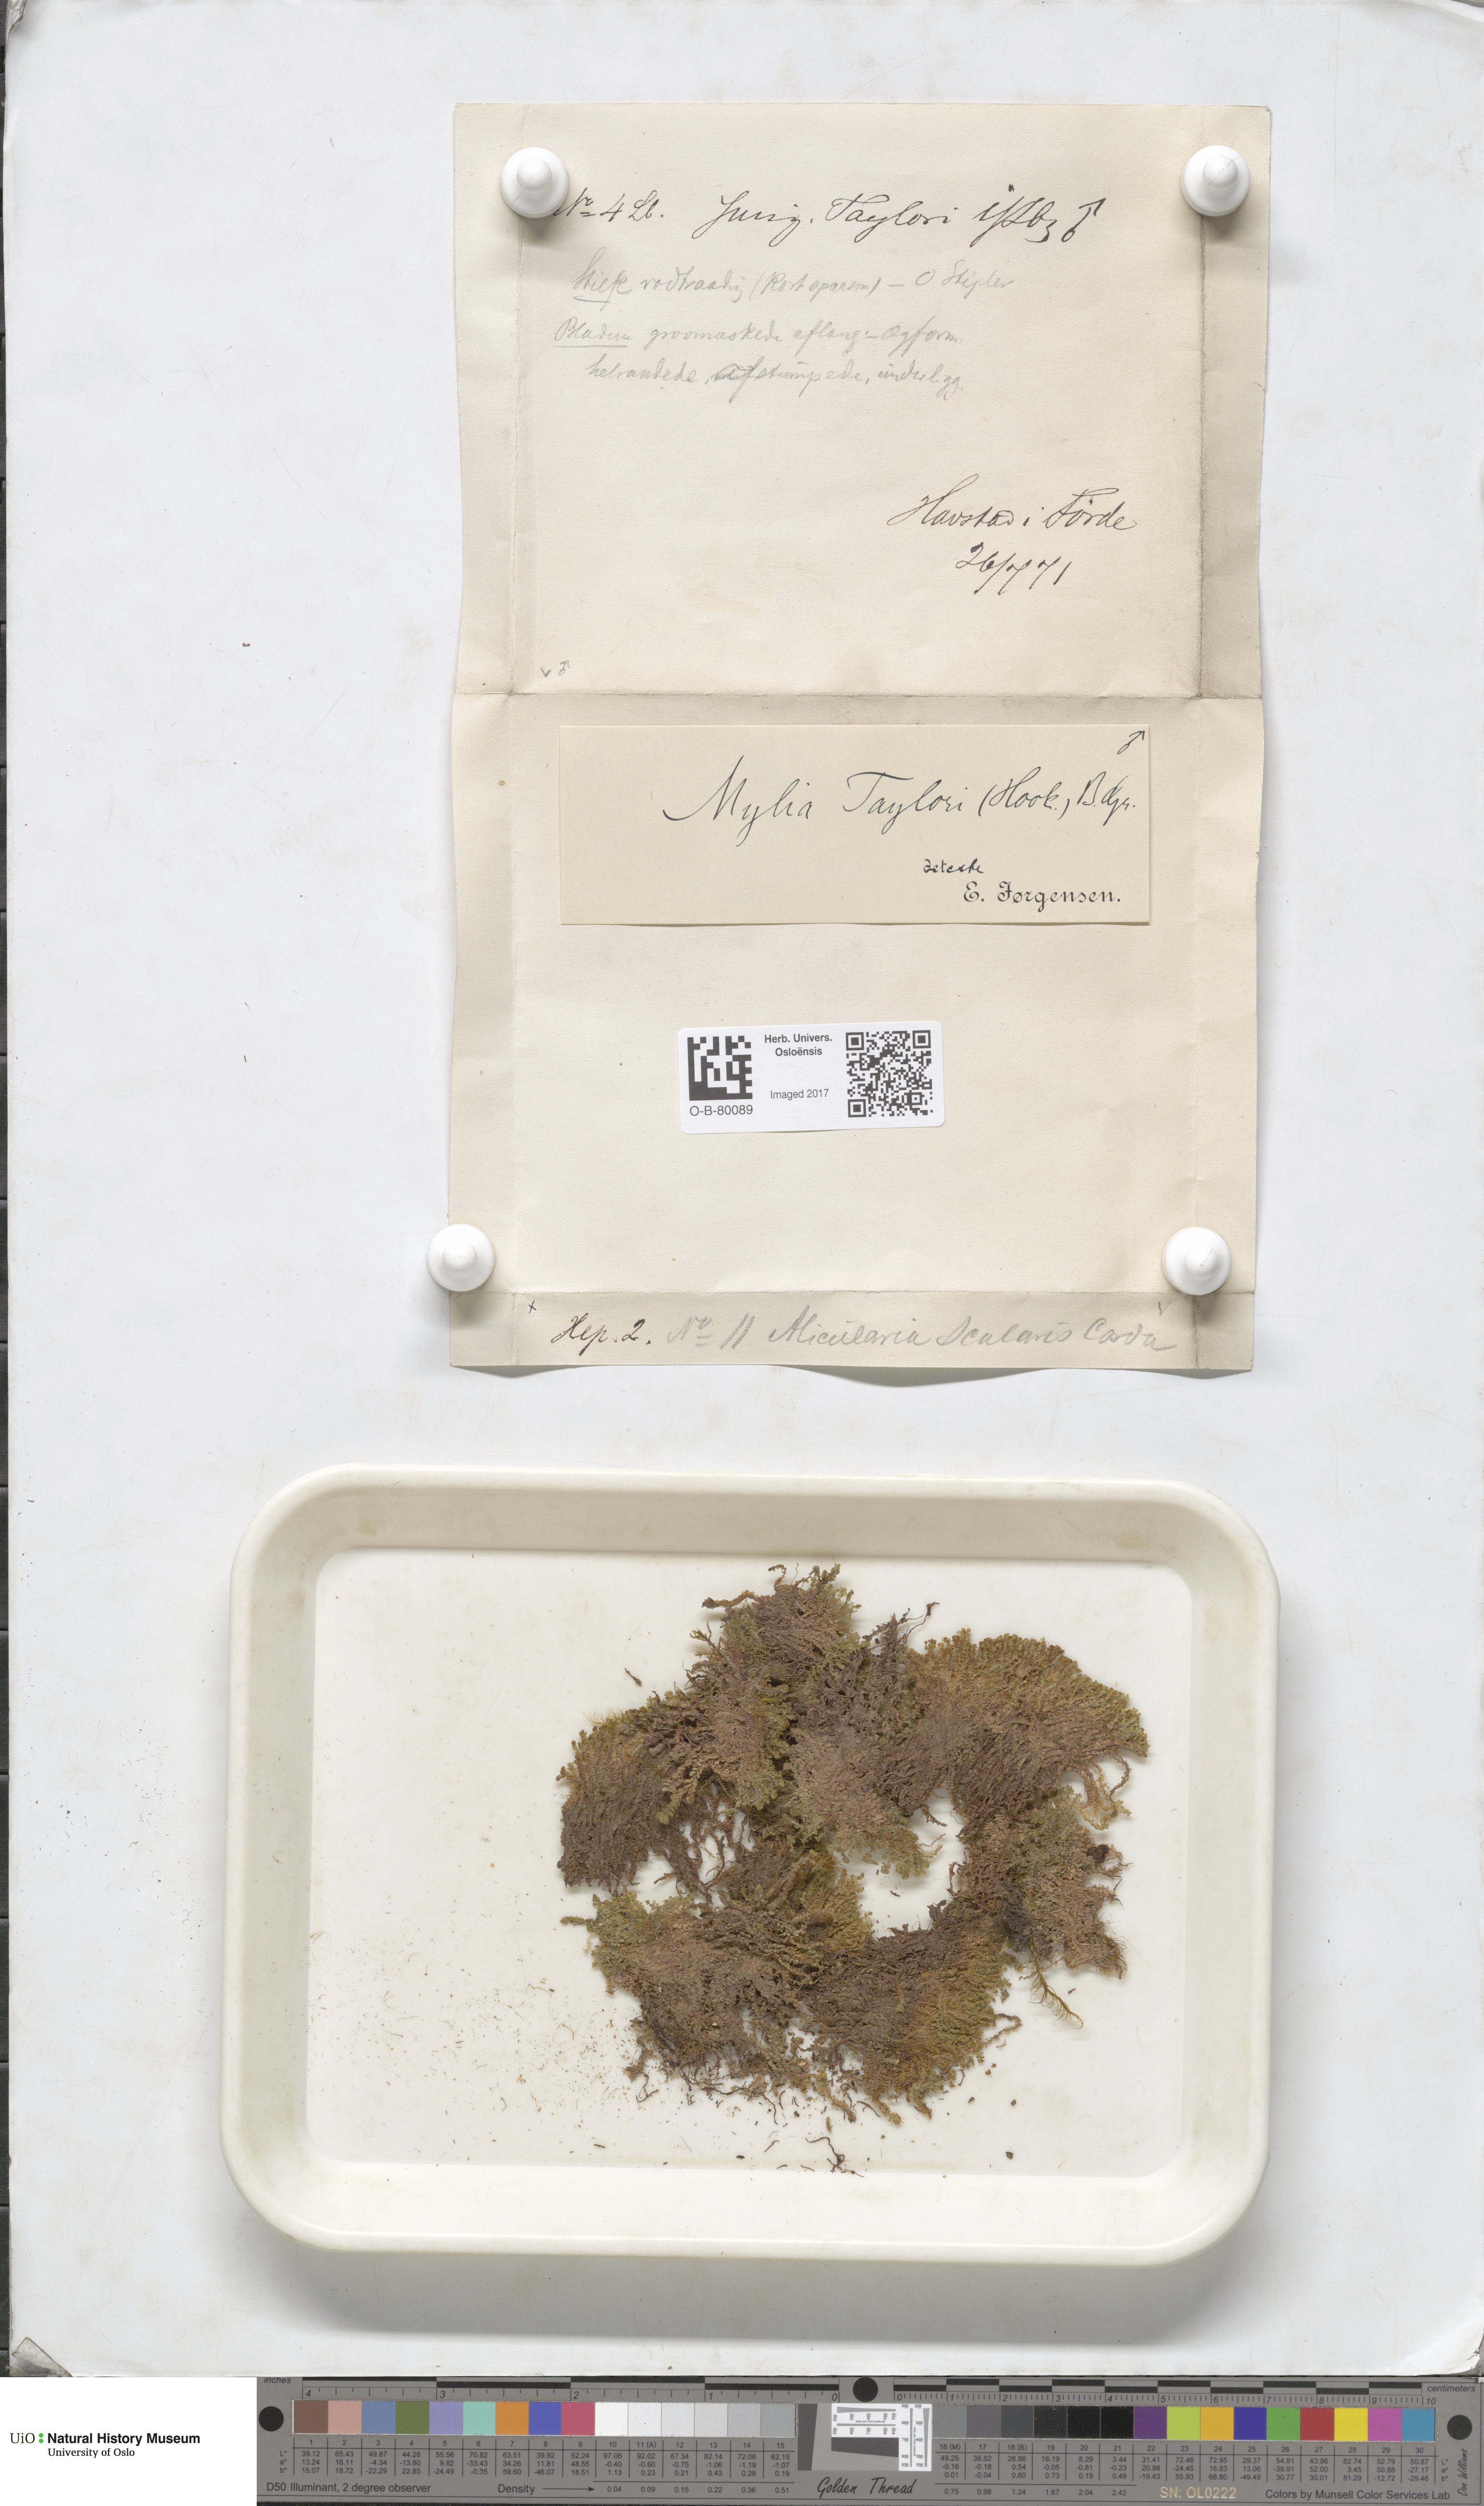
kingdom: Plantae
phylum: Marchantiophyta
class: Jungermanniopsida
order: Jungermanniales
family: Myliaceae
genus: Mylia
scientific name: Mylia taylorii
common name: Taylor s flapwort
